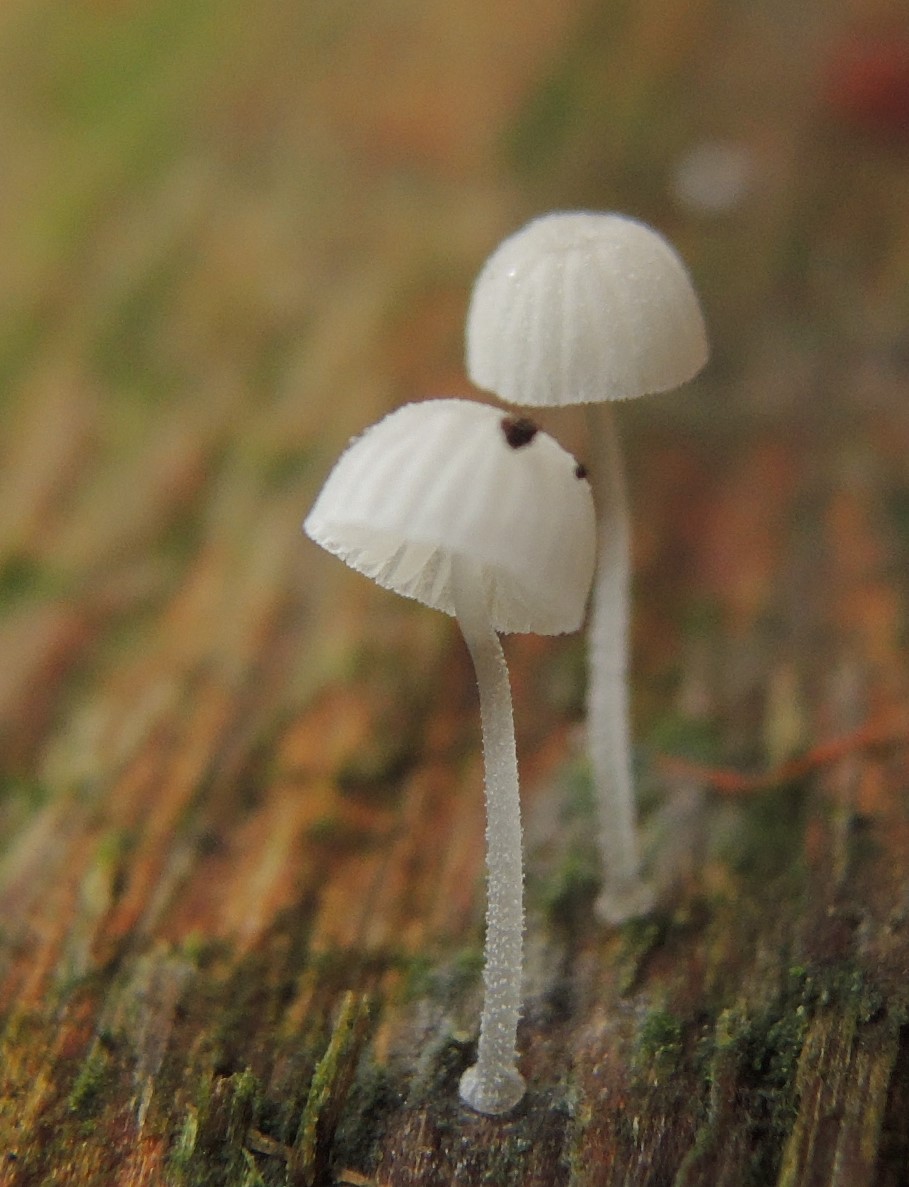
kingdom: Fungi
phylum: Basidiomycota
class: Agaricomycetes
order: Agaricales
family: Mycenaceae
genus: Mycena
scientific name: Mycena tenerrima
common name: pudret huesvamp
